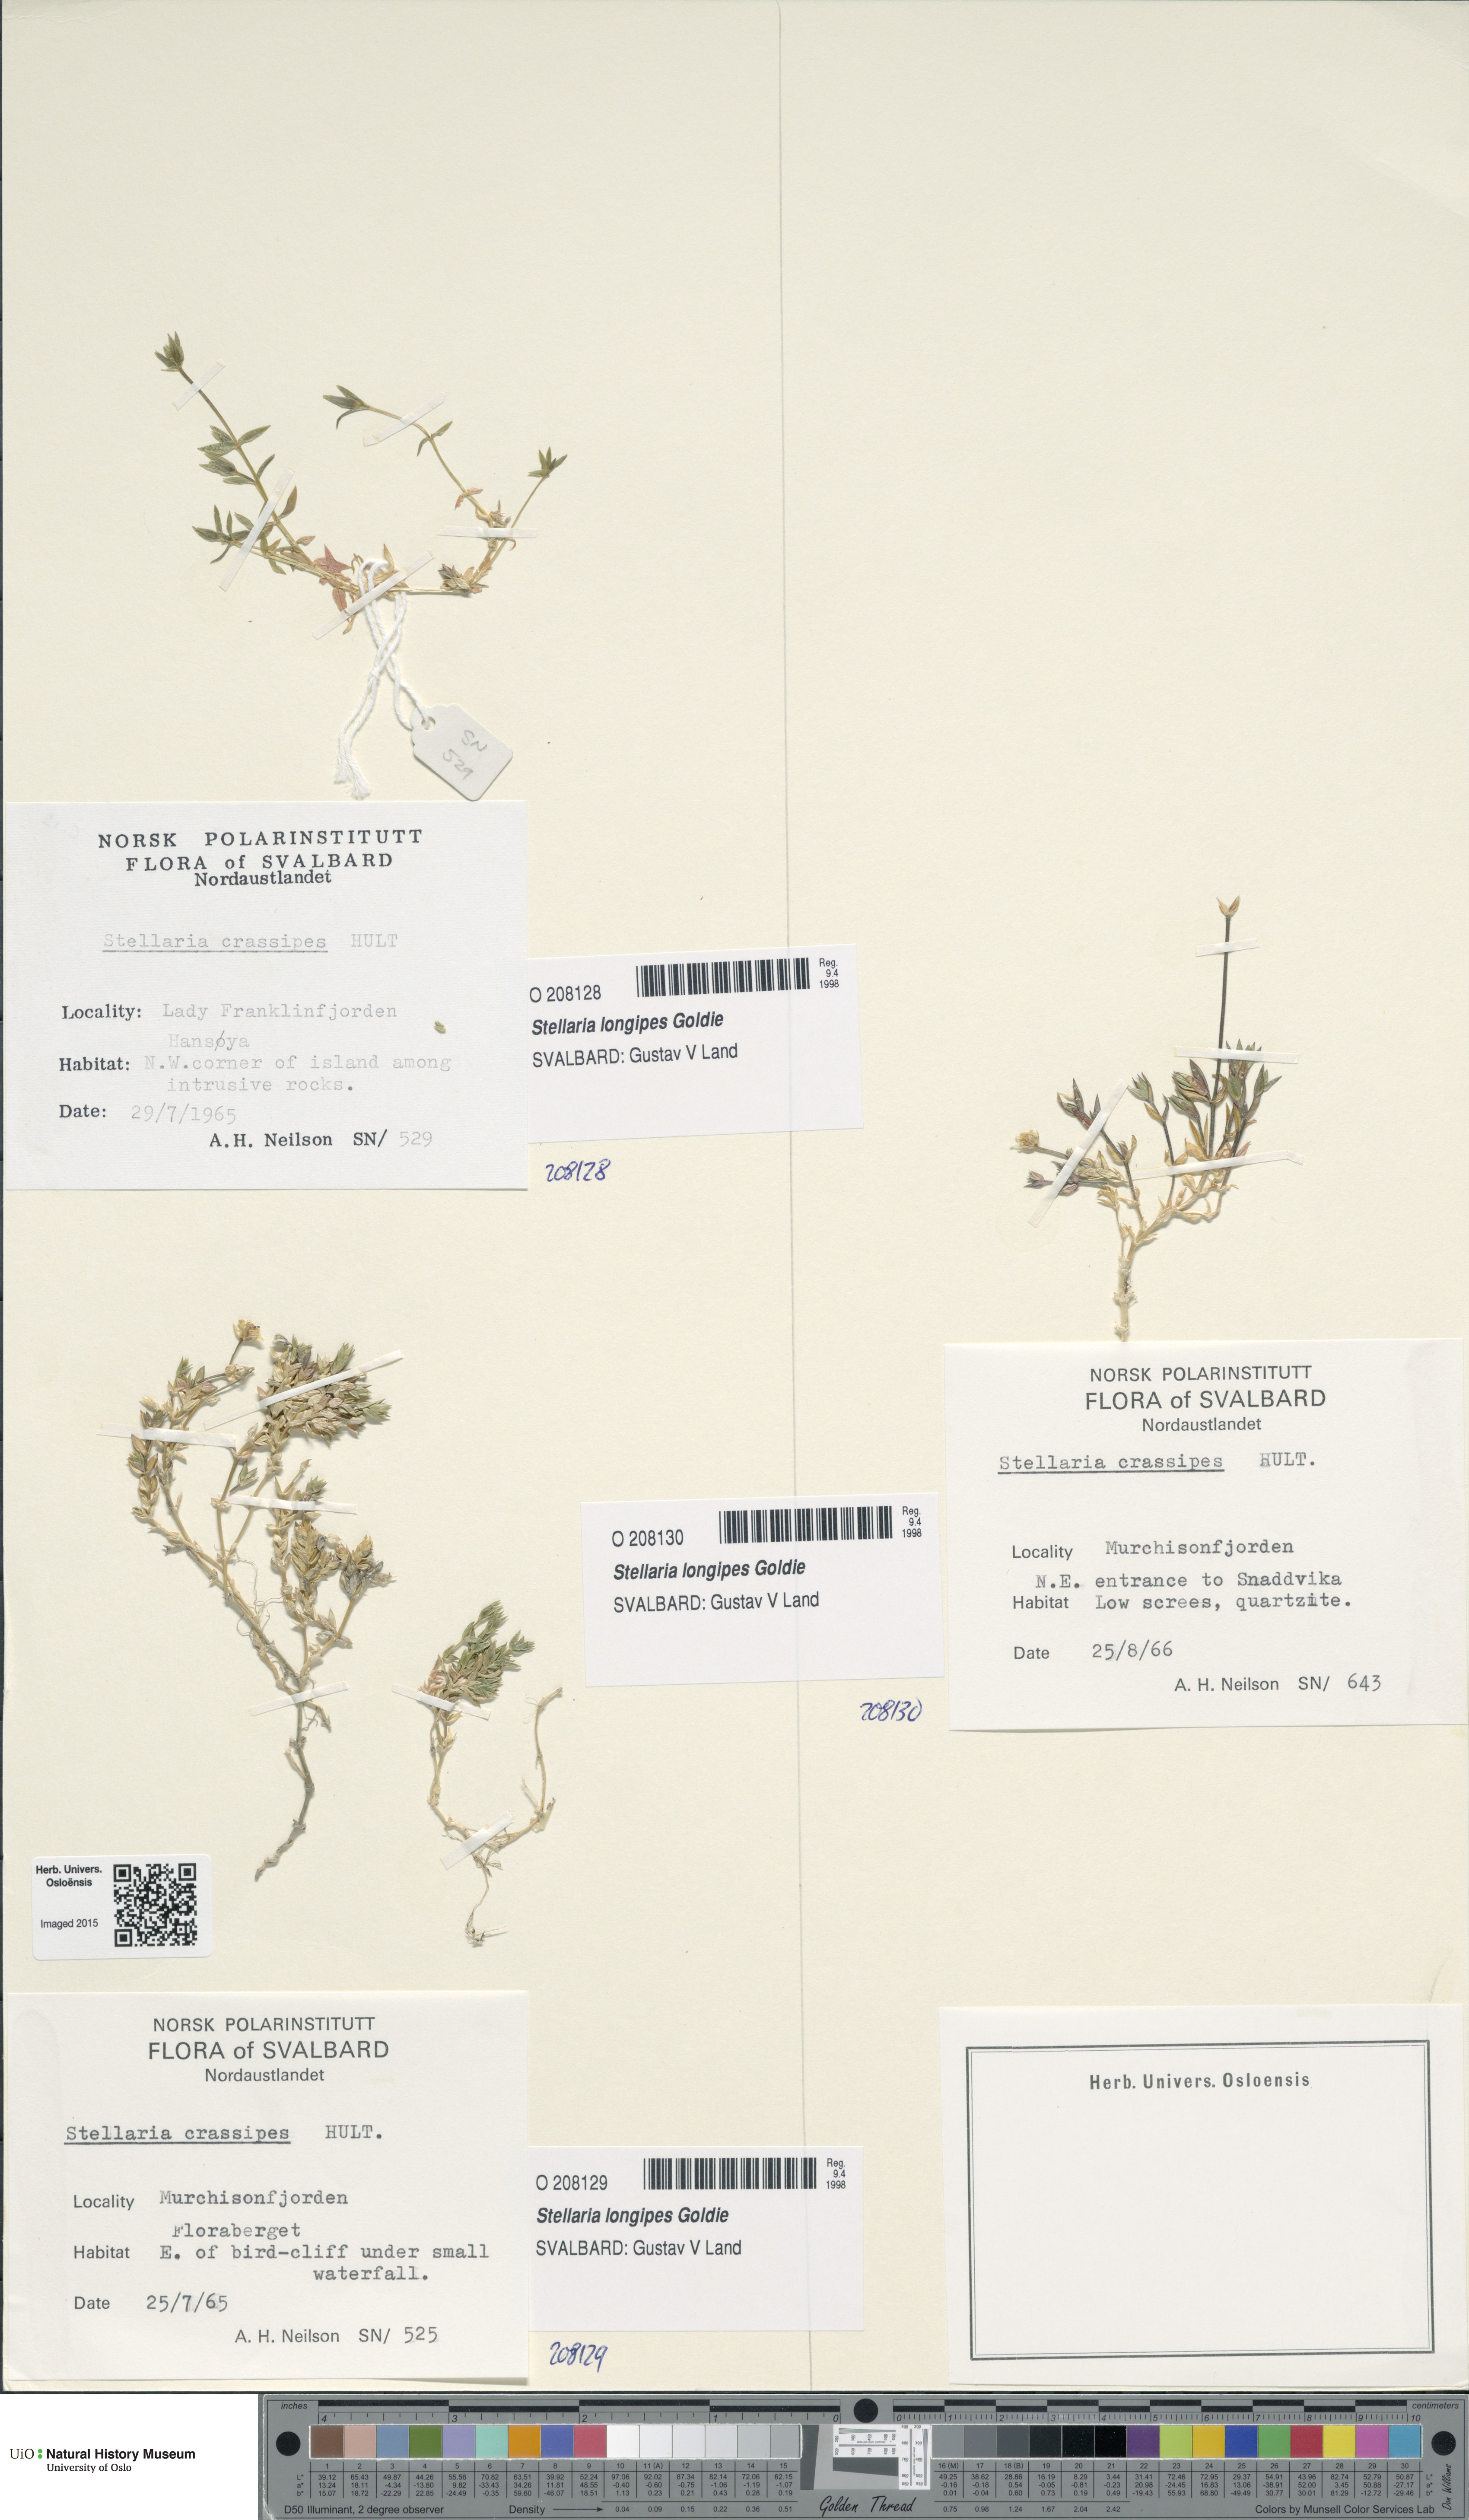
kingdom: Plantae
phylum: Tracheophyta
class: Magnoliopsida
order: Caryophyllales
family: Caryophyllaceae
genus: Stellaria
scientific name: Stellaria longipes
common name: Goldie's starwort
